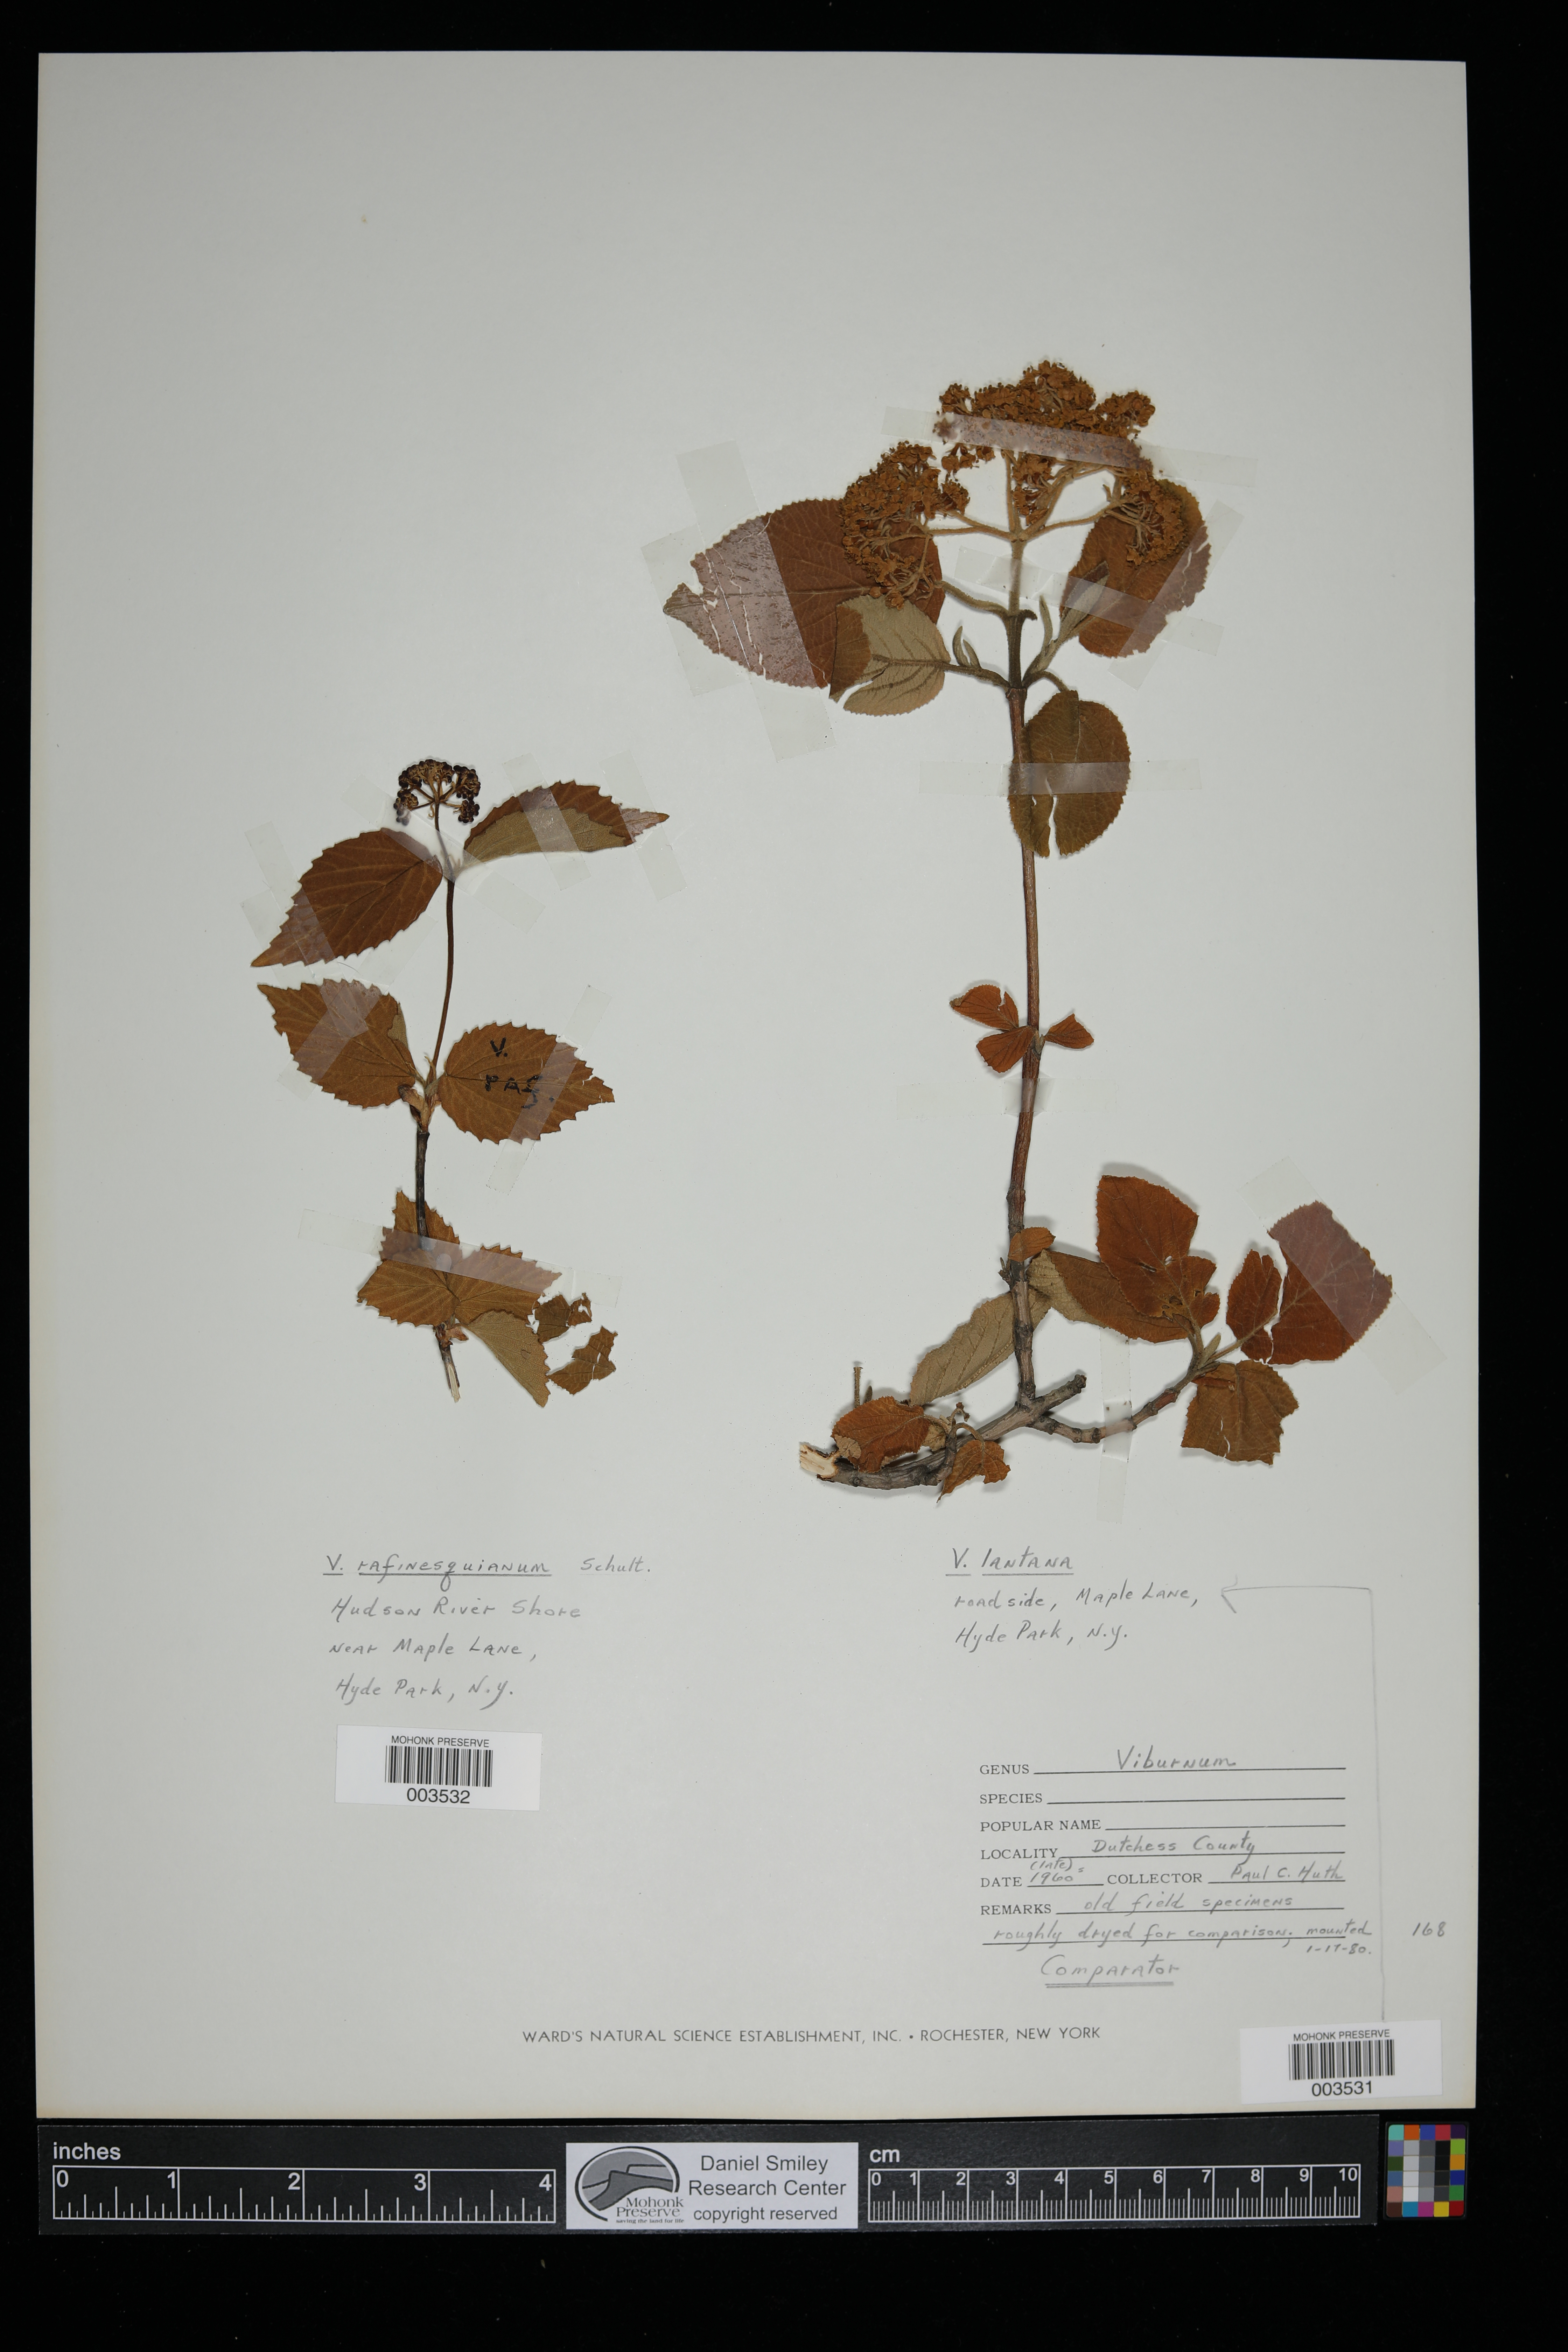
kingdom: Plantae
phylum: Tracheophyta
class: Magnoliopsida
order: Dipsacales
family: Viburnaceae
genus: Viburnum
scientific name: Viburnum lantana
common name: Wayfaring tree
